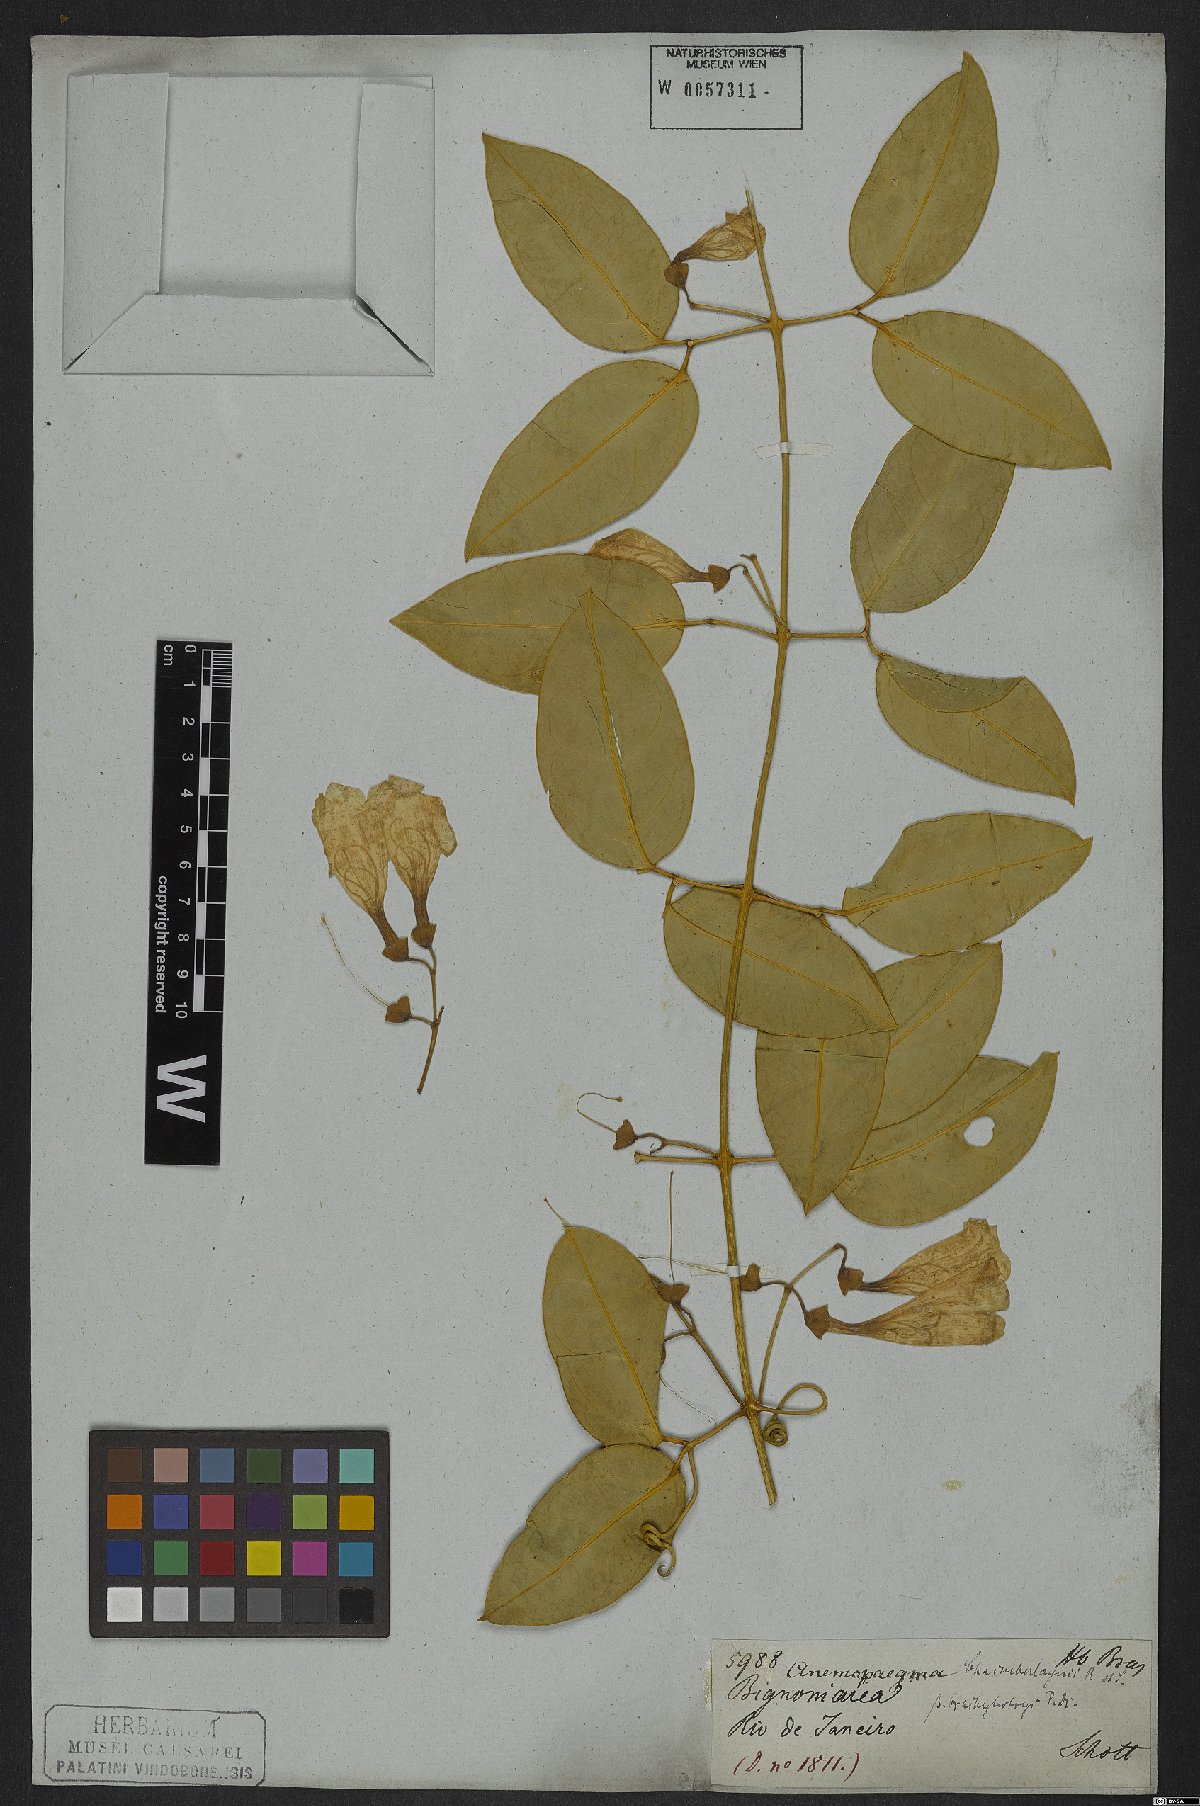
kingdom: Plantae
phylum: Tracheophyta
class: Magnoliopsida
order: Lamiales
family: Bignoniaceae
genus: Anemopaegma
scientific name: Anemopaegma chamberlaynii
